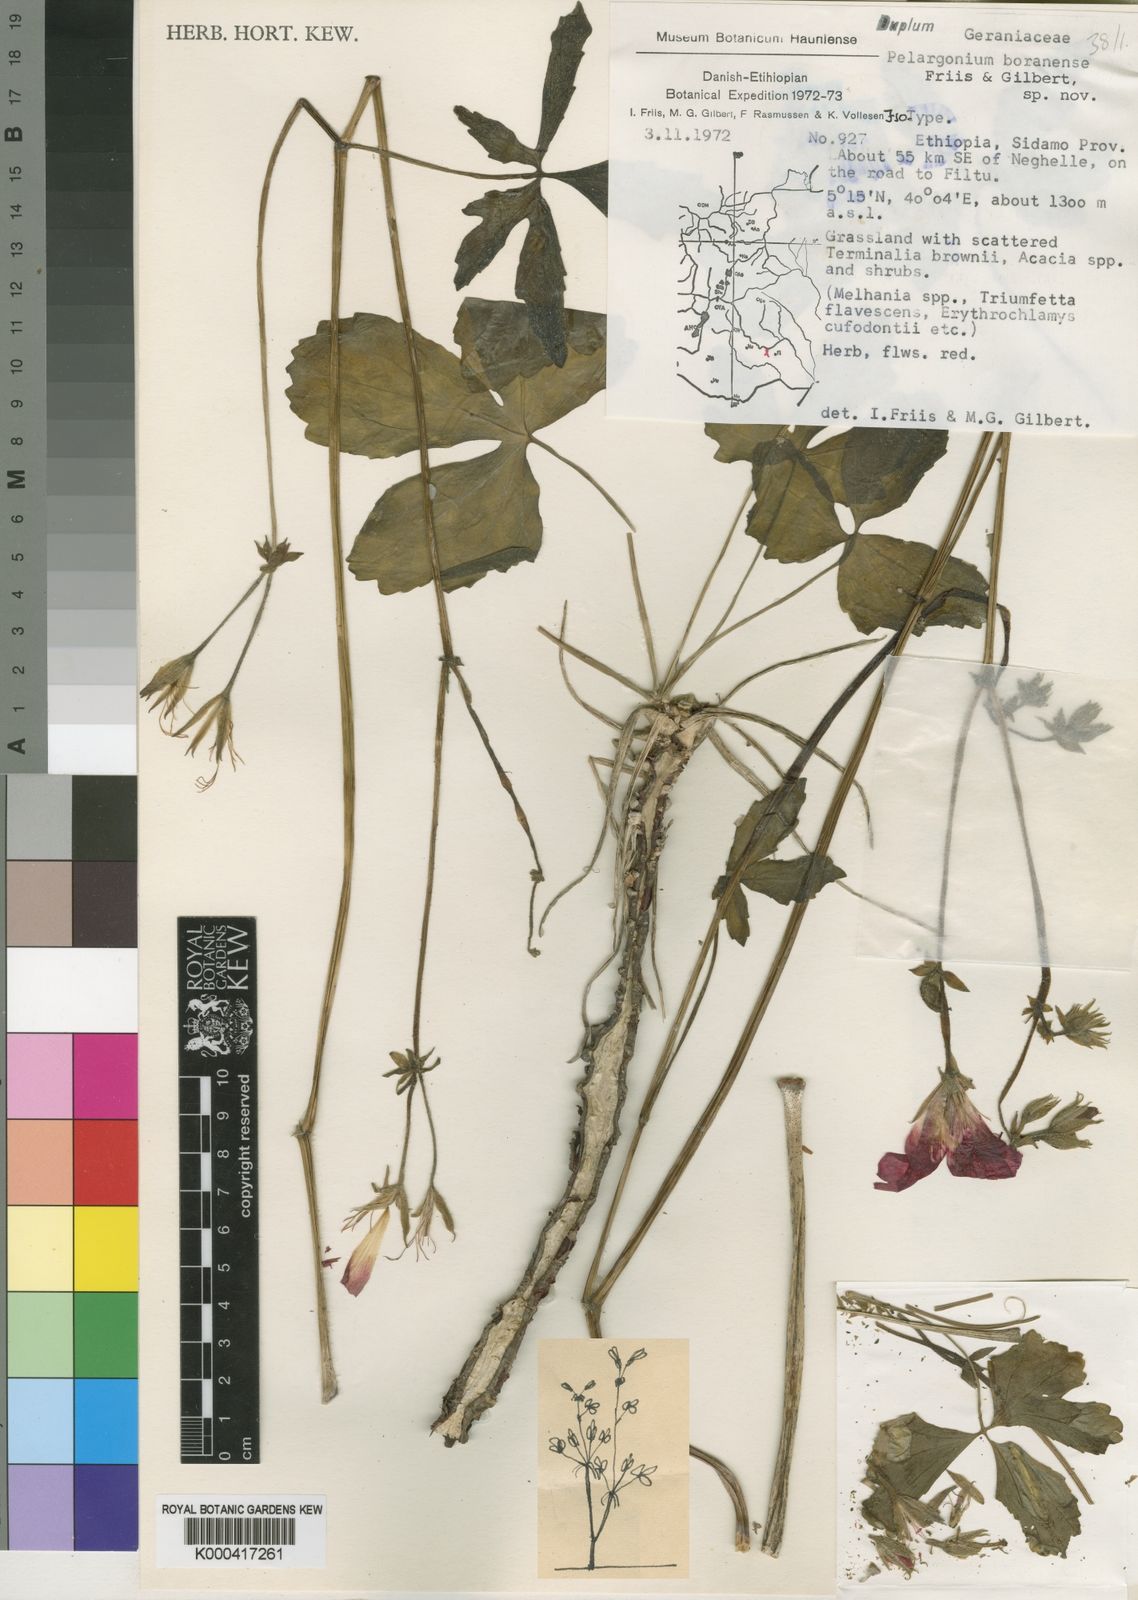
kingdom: Plantae
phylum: Tracheophyta
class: Magnoliopsida
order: Geraniales
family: Geraniaceae
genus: Pelargonium
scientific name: Pelargonium boranense
